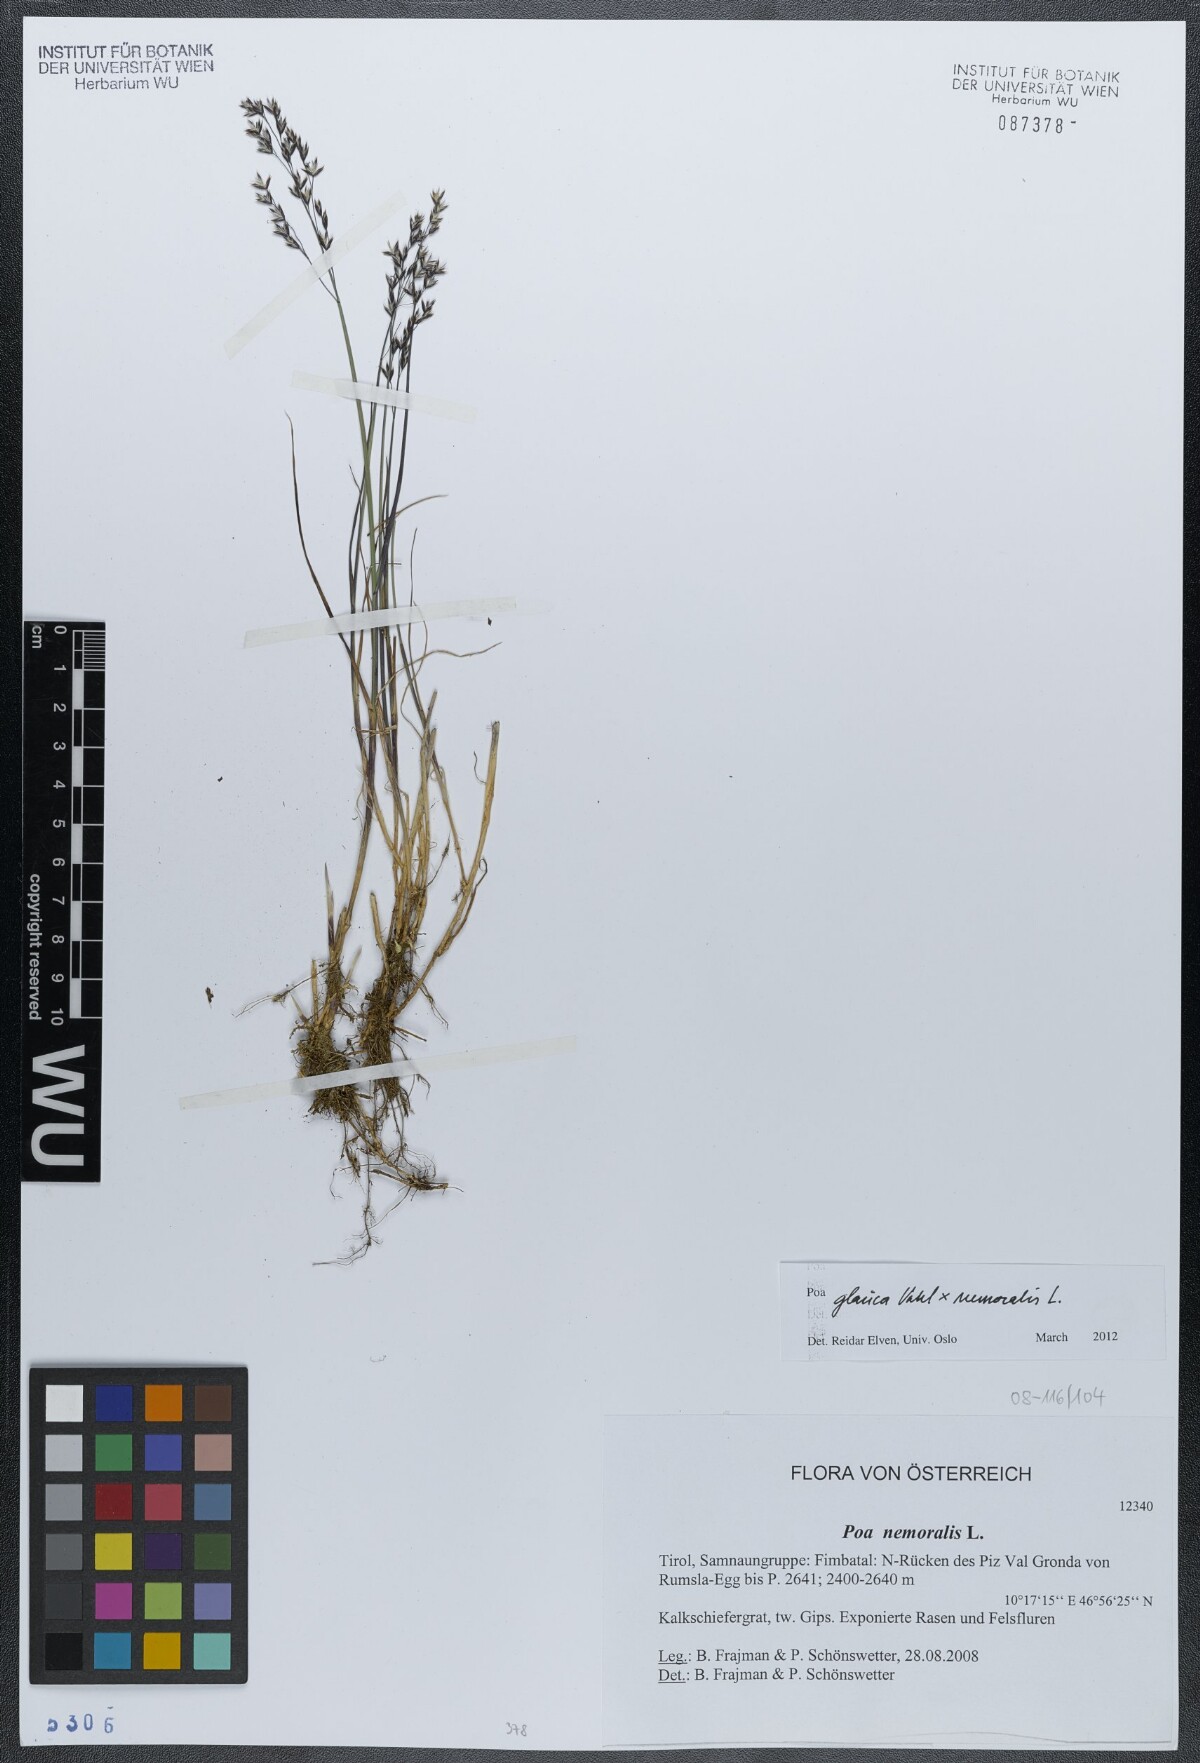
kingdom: Plantae
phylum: Tracheophyta
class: Liliopsida
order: Poales
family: Poaceae
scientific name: Poaceae
